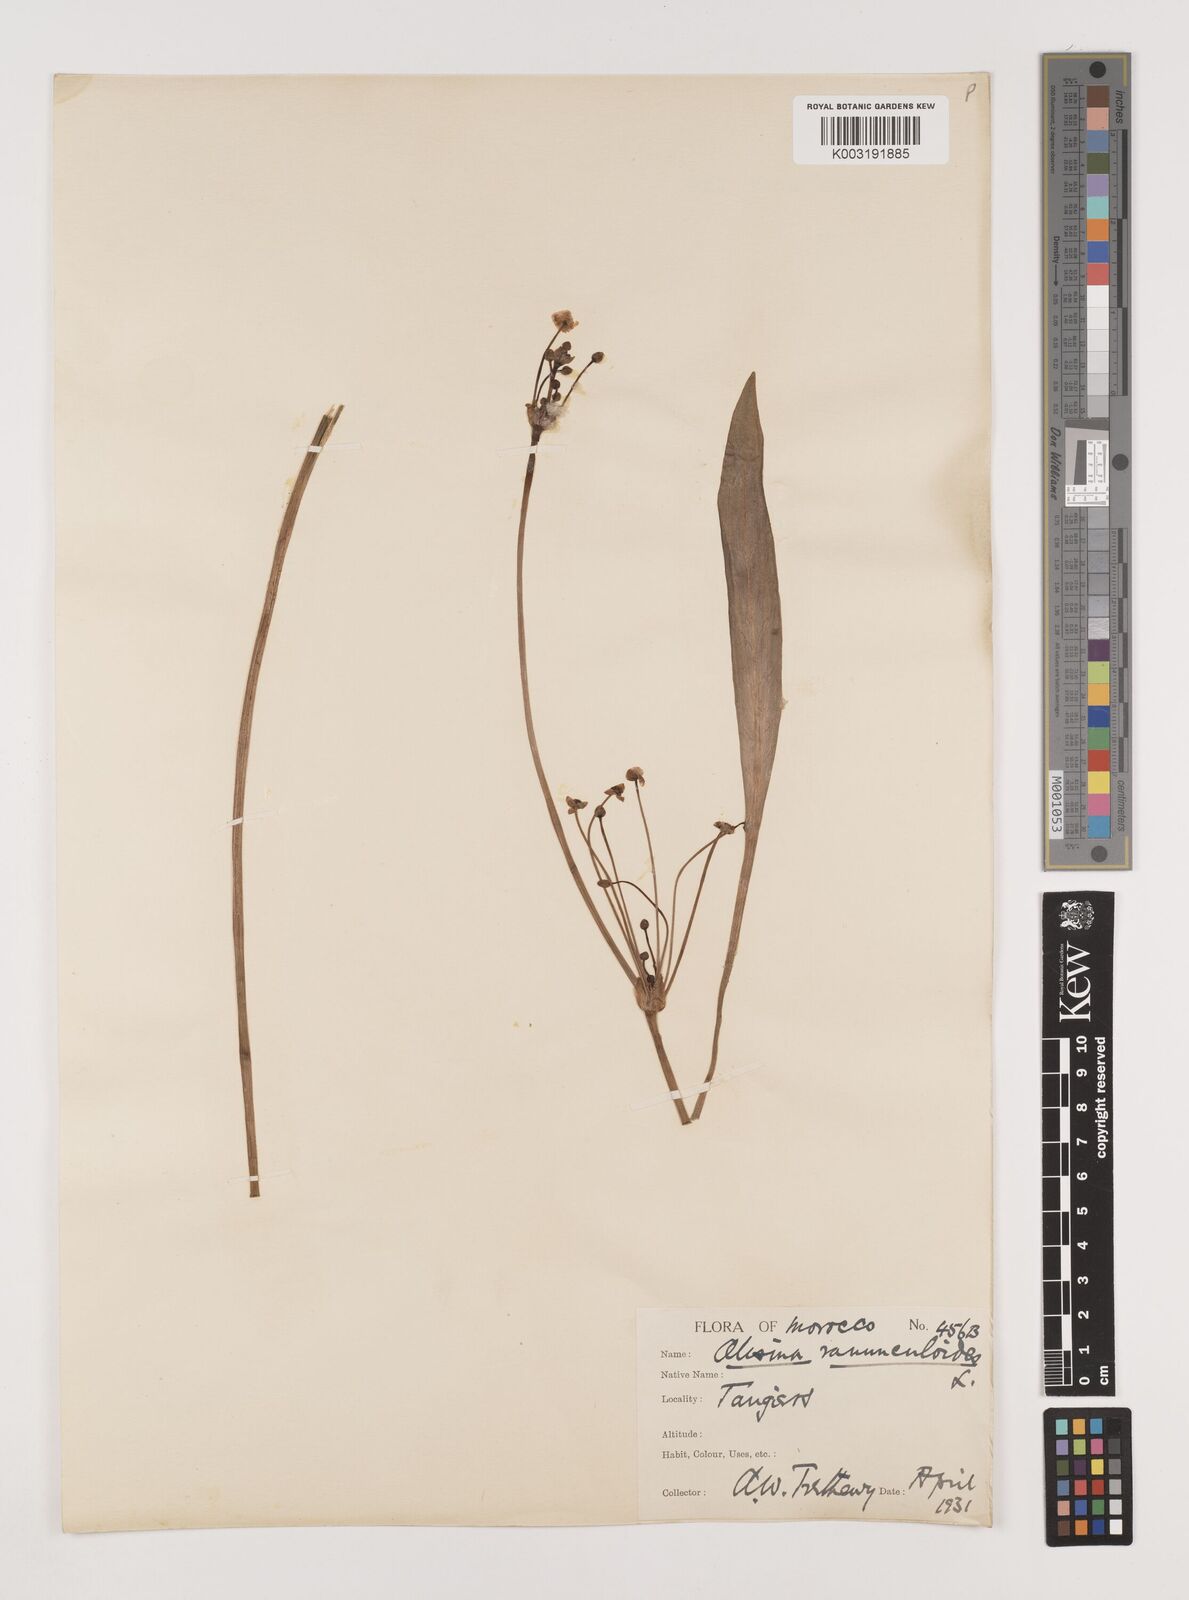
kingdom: Plantae
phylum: Tracheophyta
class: Liliopsida
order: Alismatales
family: Alismataceae
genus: Baldellia
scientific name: Baldellia ranunculoides
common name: Lesser water-plantain
